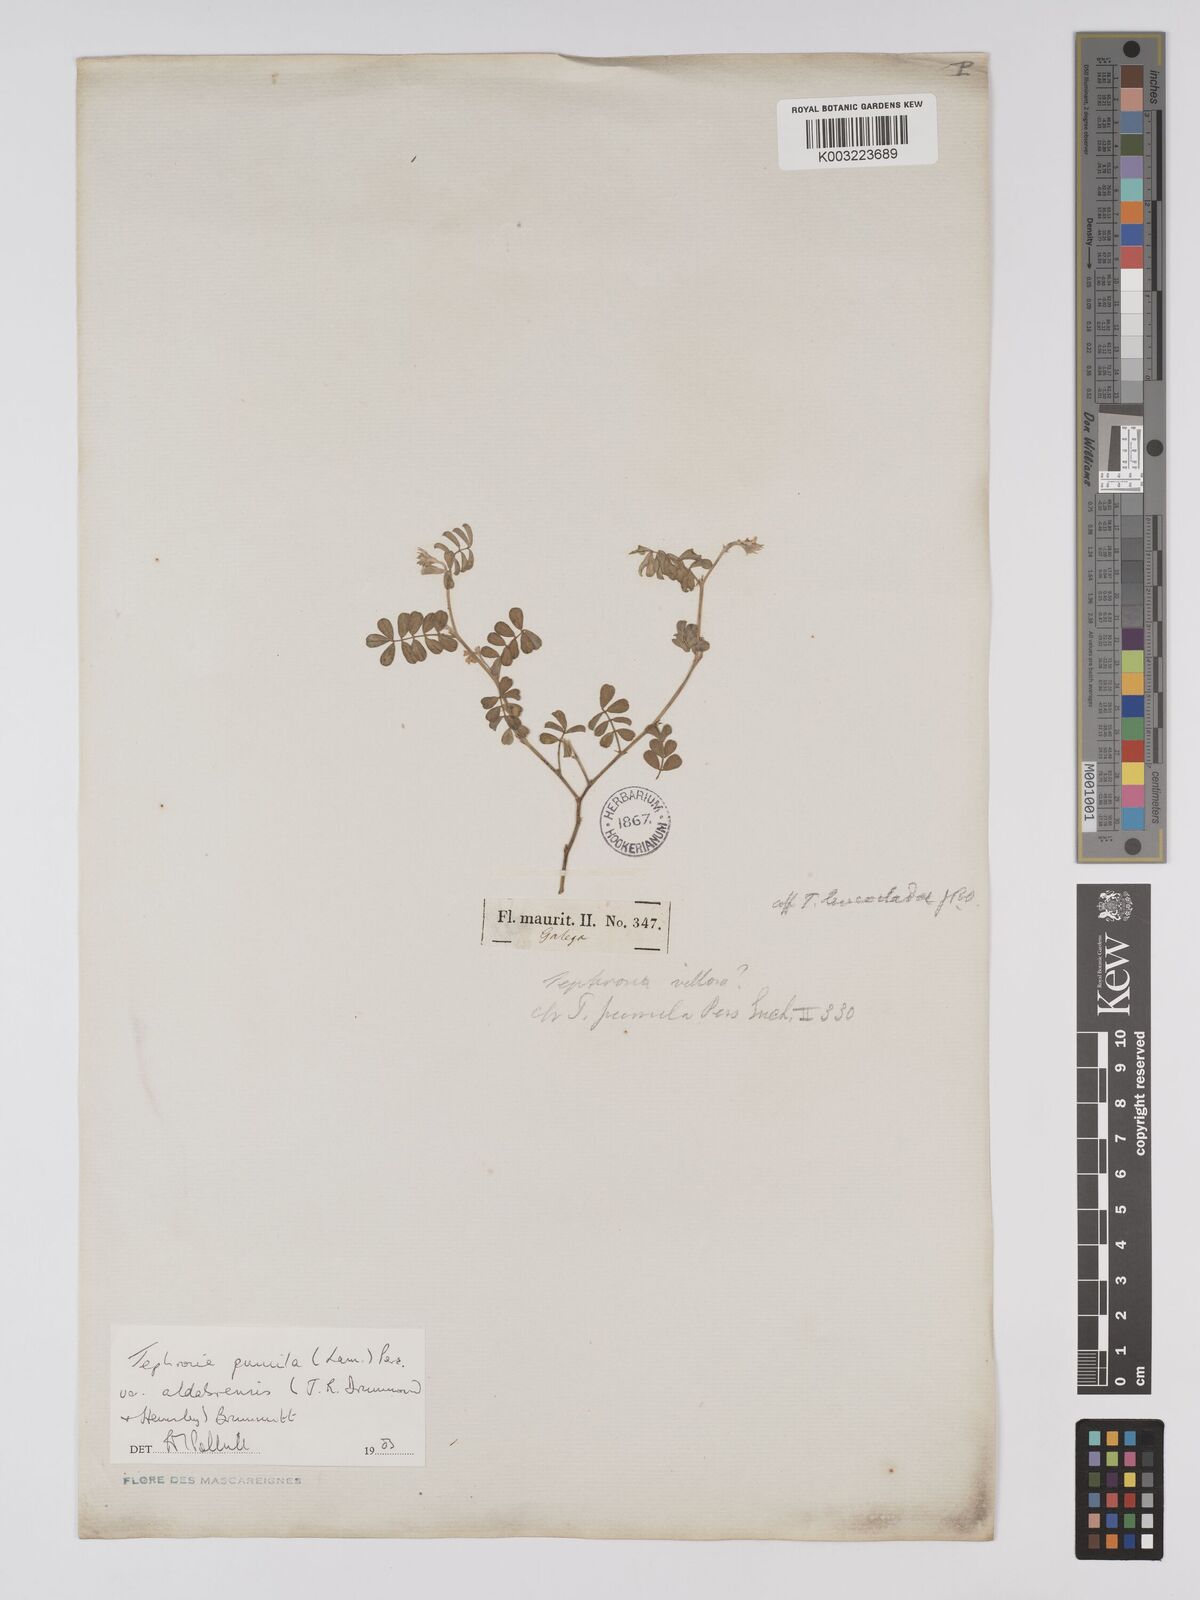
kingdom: Plantae
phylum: Tracheophyta
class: Magnoliopsida
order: Fabales
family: Fabaceae
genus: Tephrosia
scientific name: Tephrosia pumila
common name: Indigo sauvage
